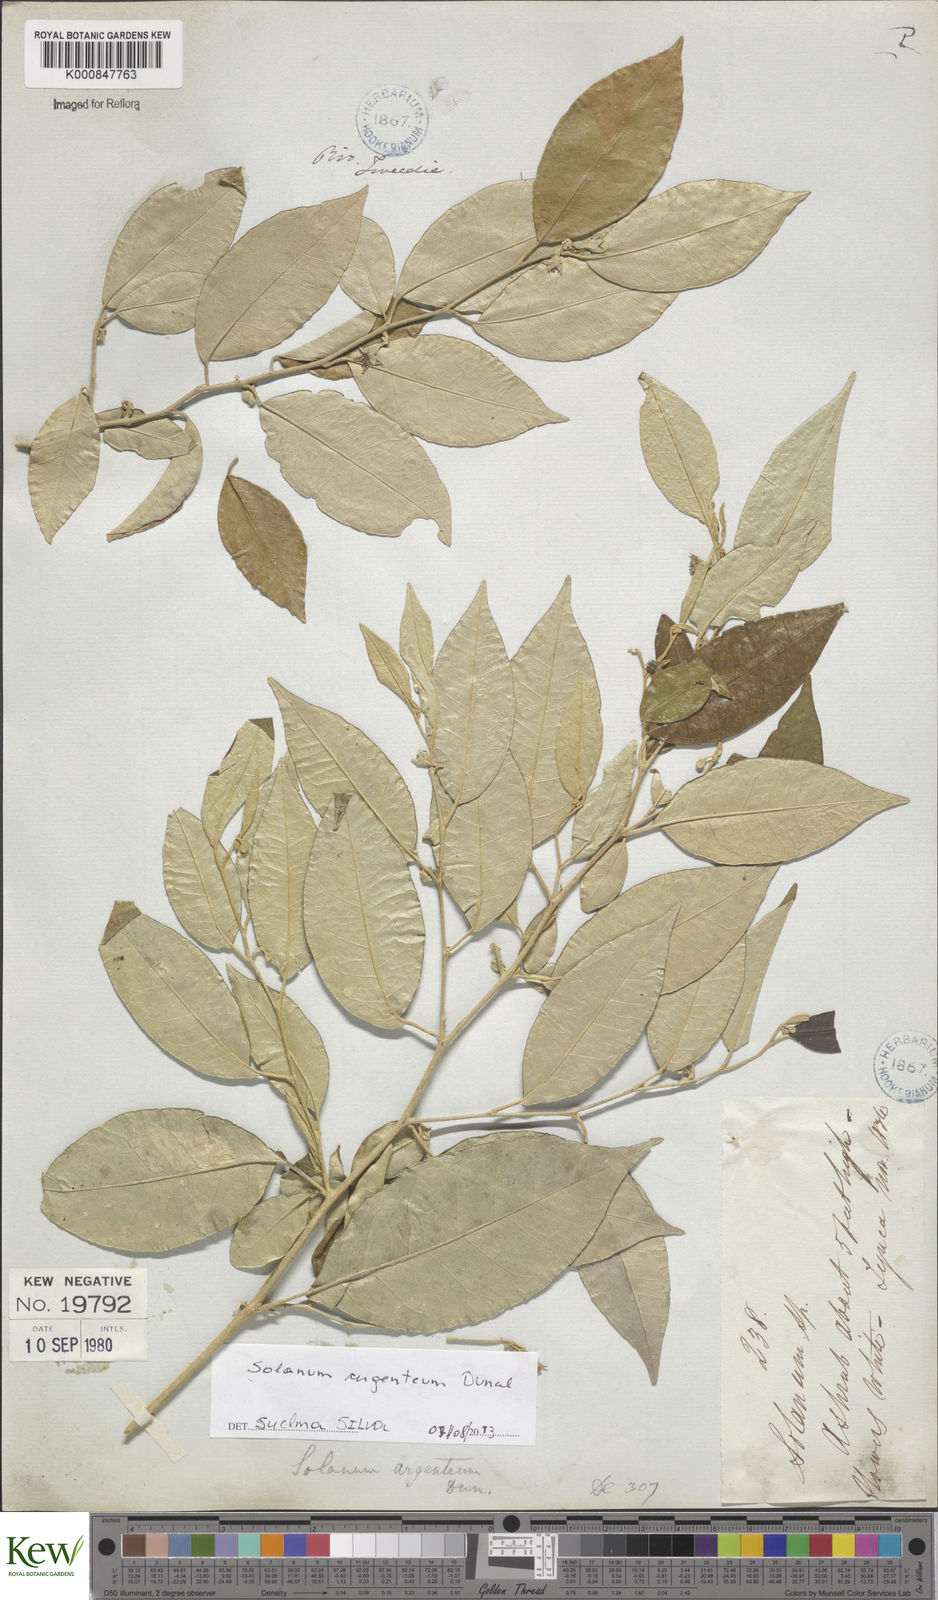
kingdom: Plantae
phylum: Tracheophyta
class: Magnoliopsida
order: Solanales
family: Solanaceae
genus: Solanum
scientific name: Solanum swartzianum
